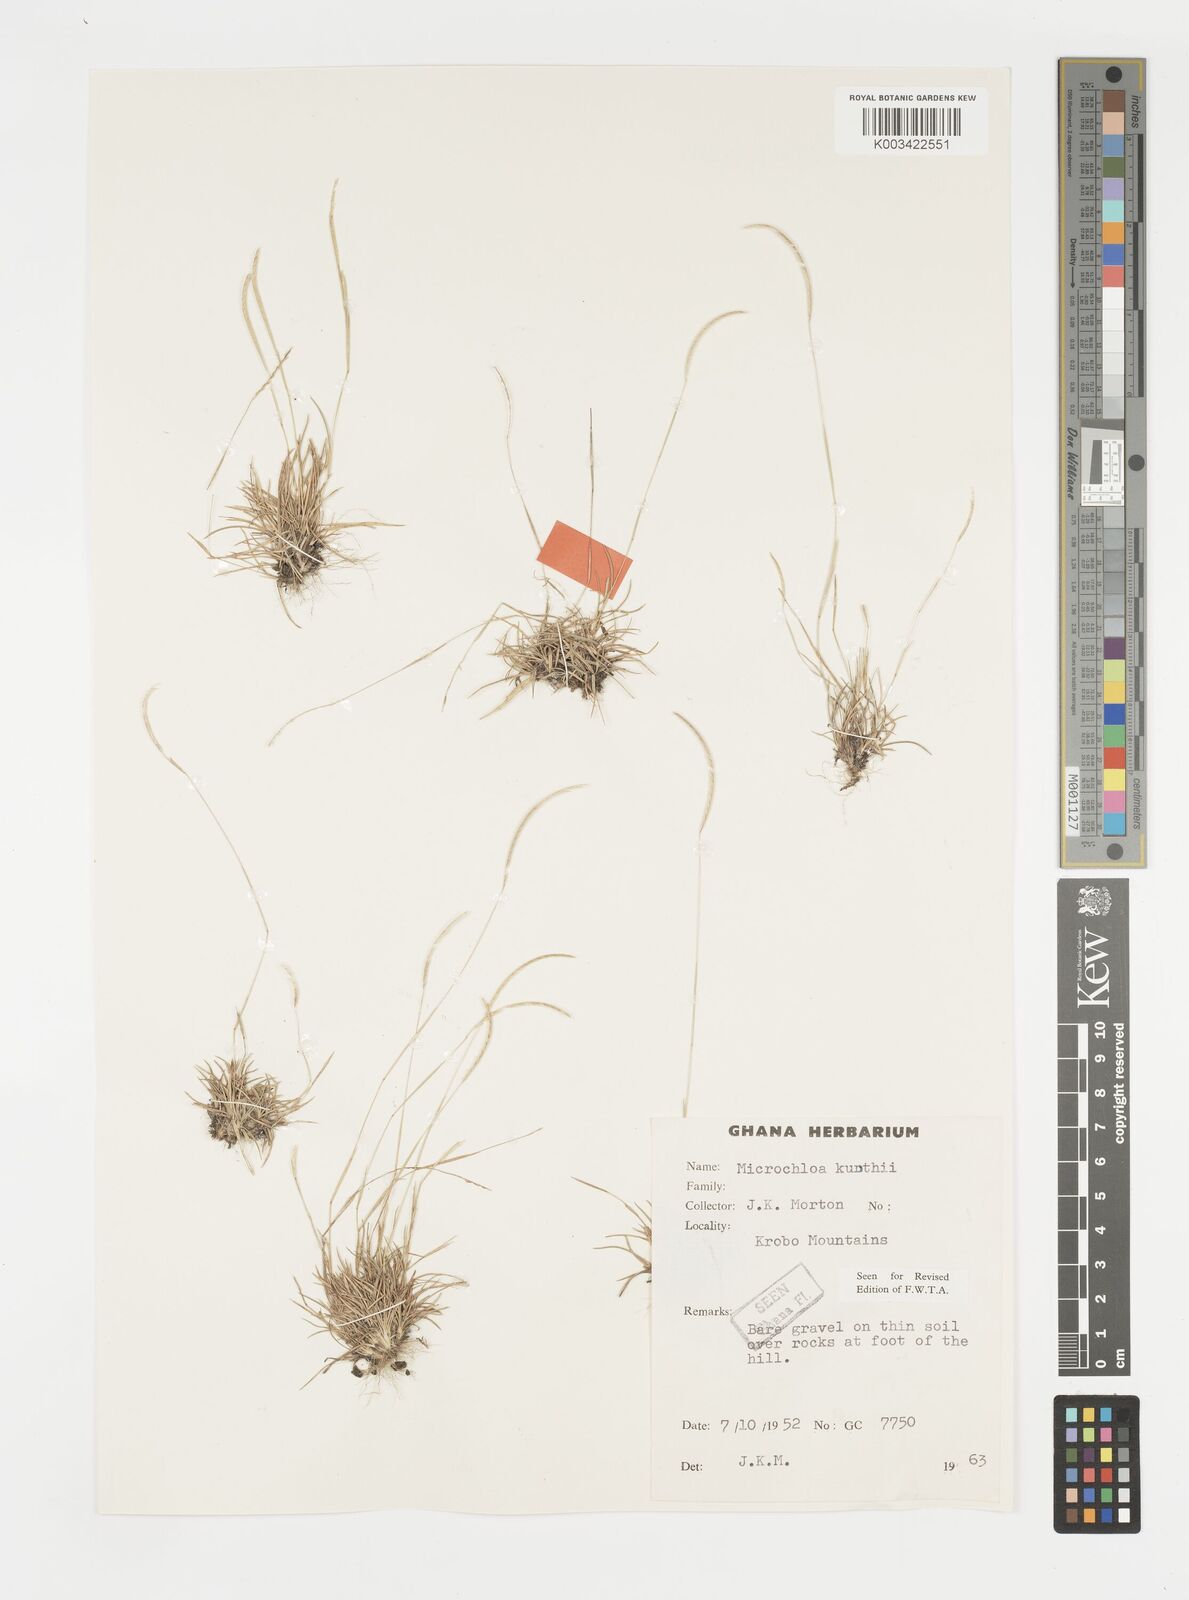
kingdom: Plantae
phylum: Tracheophyta
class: Liliopsida
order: Poales
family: Poaceae
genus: Microchloa
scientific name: Microchloa kunthii
